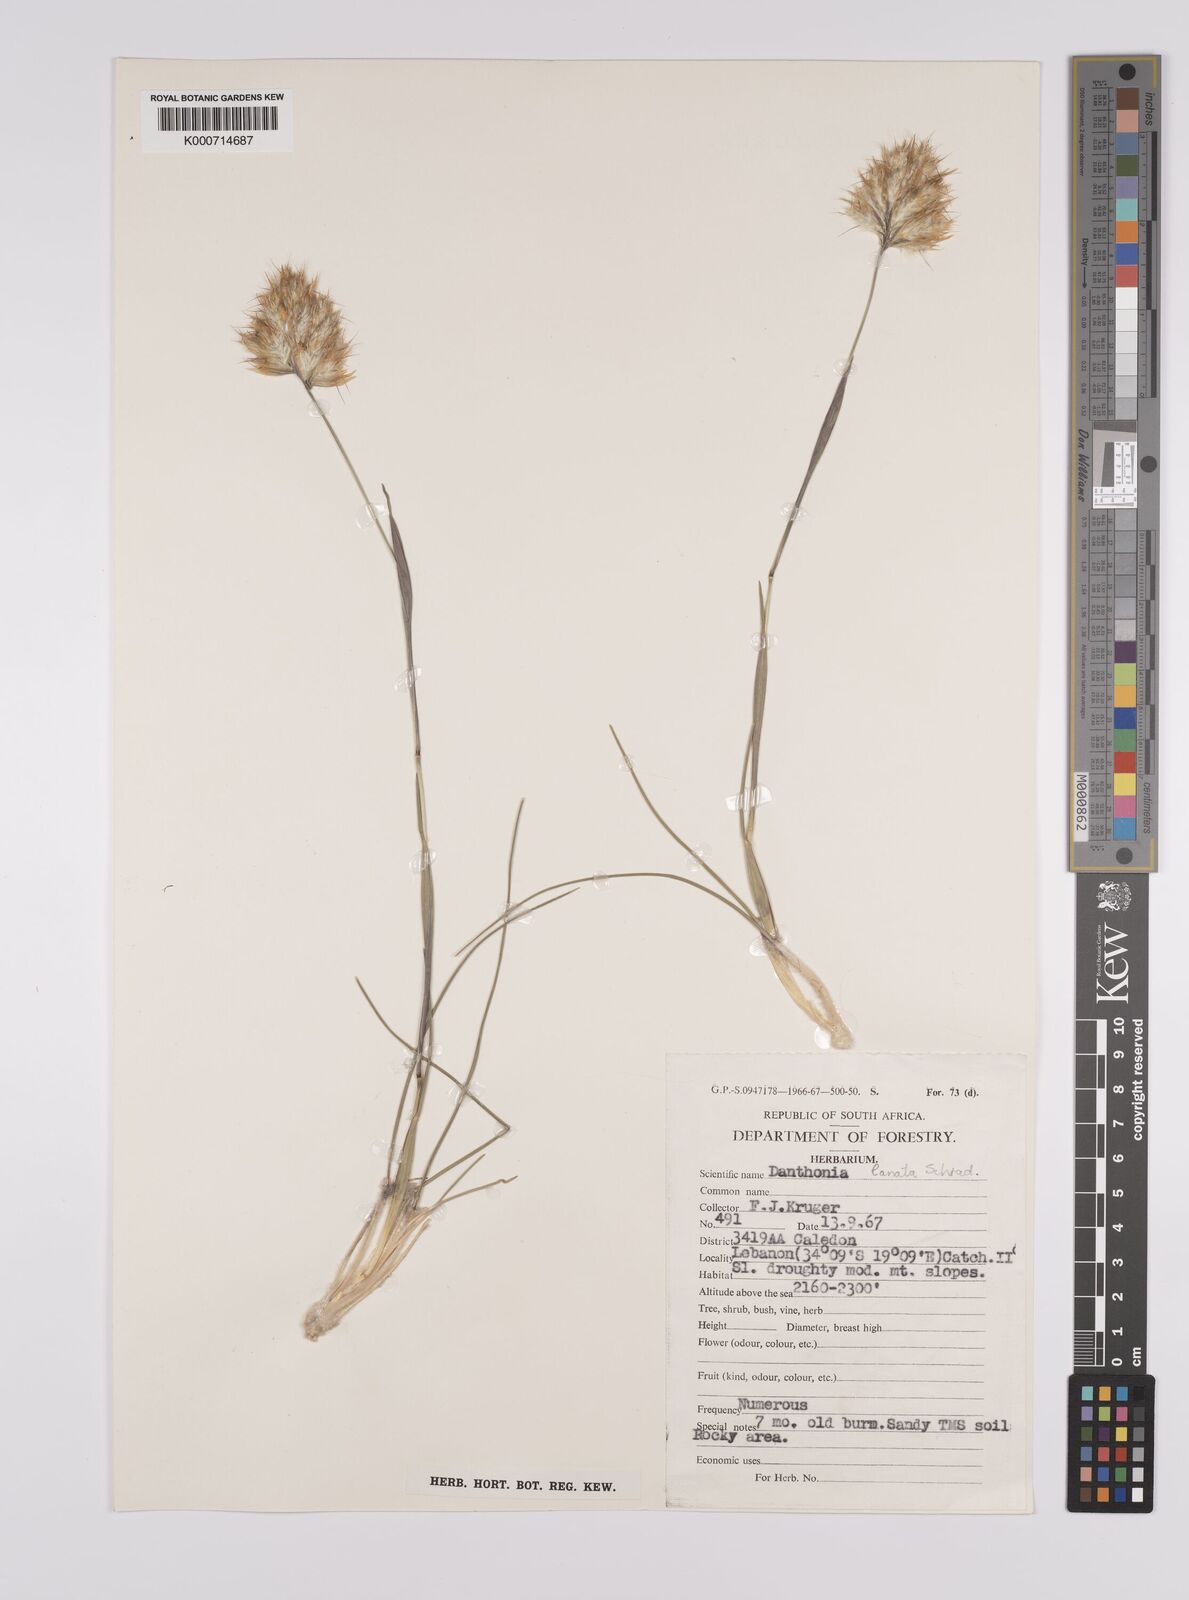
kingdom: Plantae
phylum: Tracheophyta
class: Liliopsida
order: Poales
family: Poaceae
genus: Rytidosperma
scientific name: Rytidosperma
